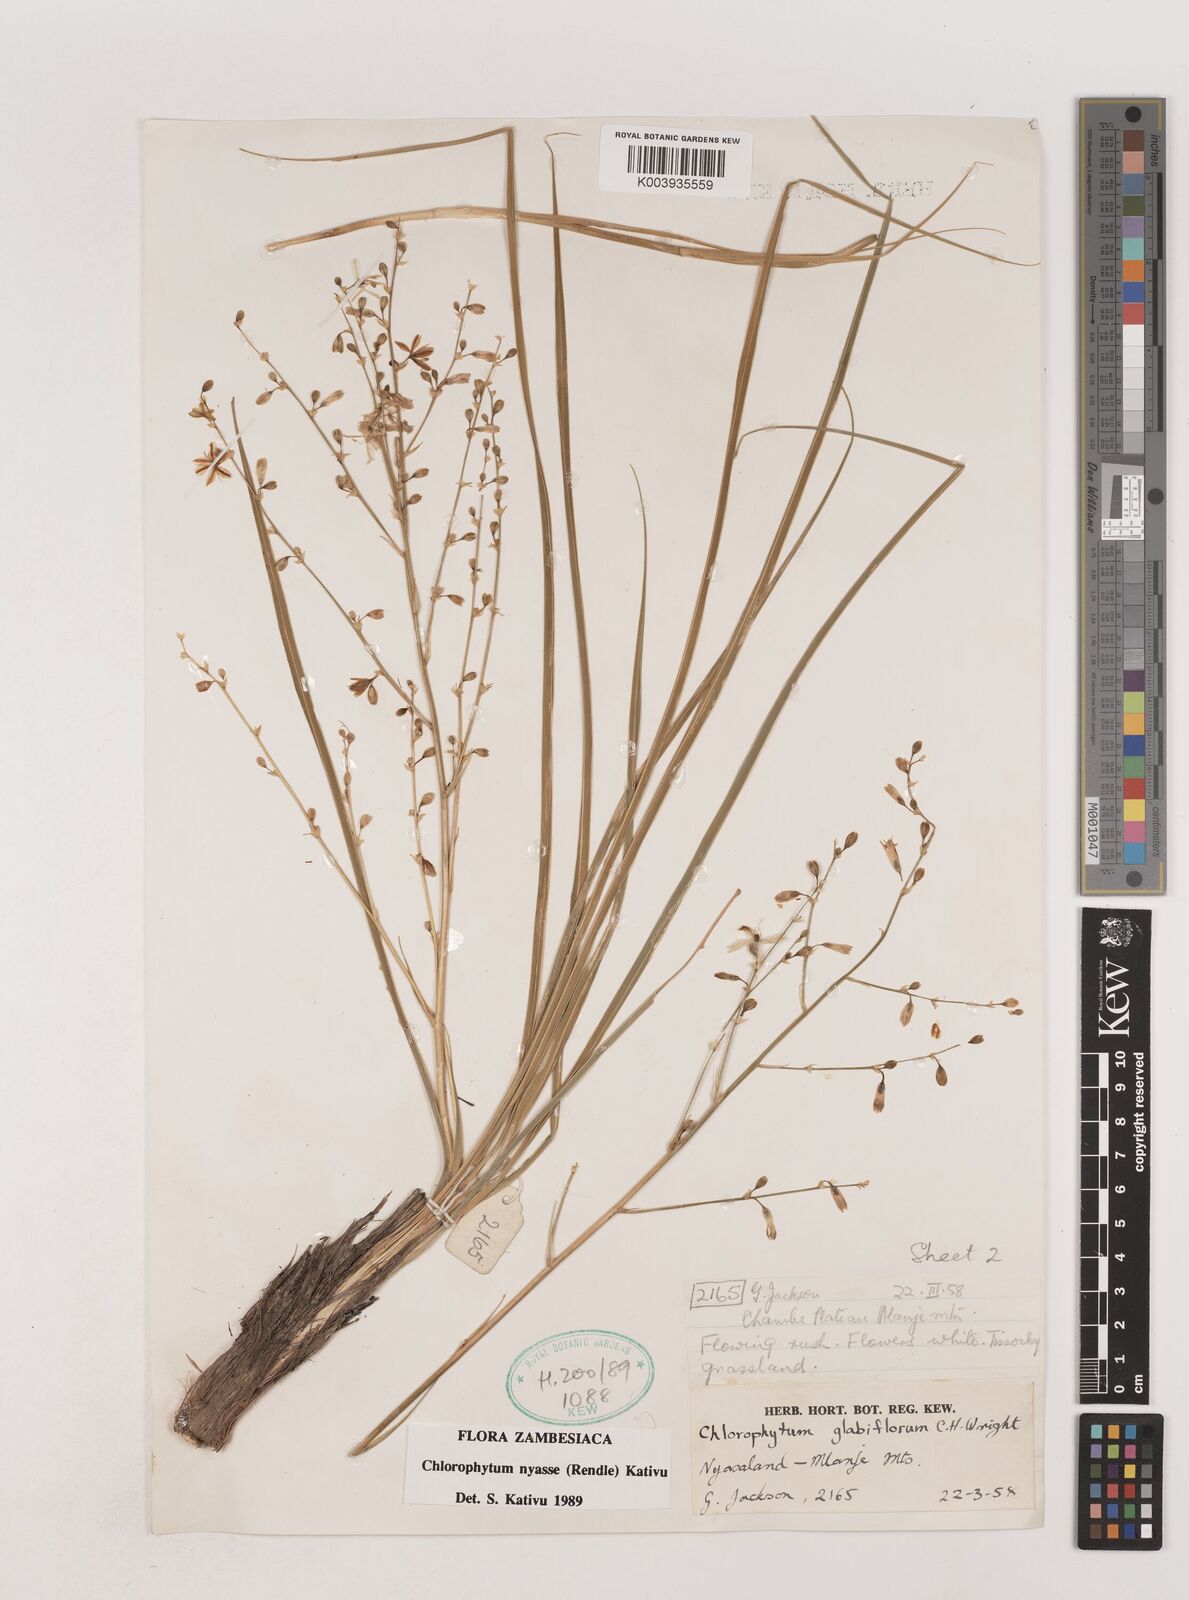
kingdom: Plantae
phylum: Tracheophyta
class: Liliopsida
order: Asparagales
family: Asparagaceae
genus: Chlorophytum
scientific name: Chlorophytum nyasae
